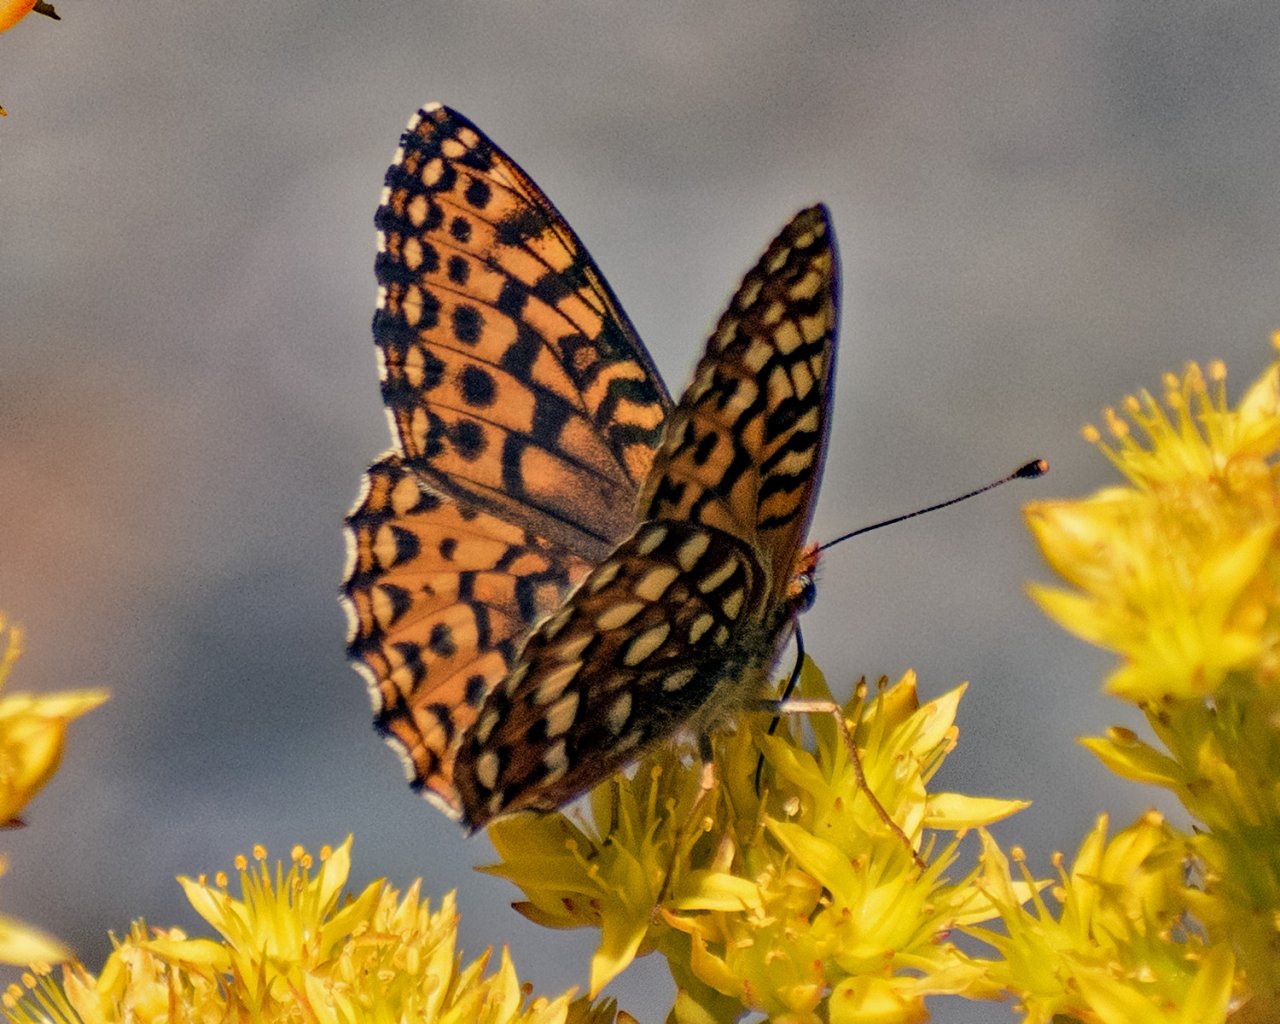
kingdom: Animalia
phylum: Arthropoda
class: Insecta
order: Lepidoptera
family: Nymphalidae
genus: Speyeria
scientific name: Speyeria hydaspe
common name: Hydaspe Fritillary
